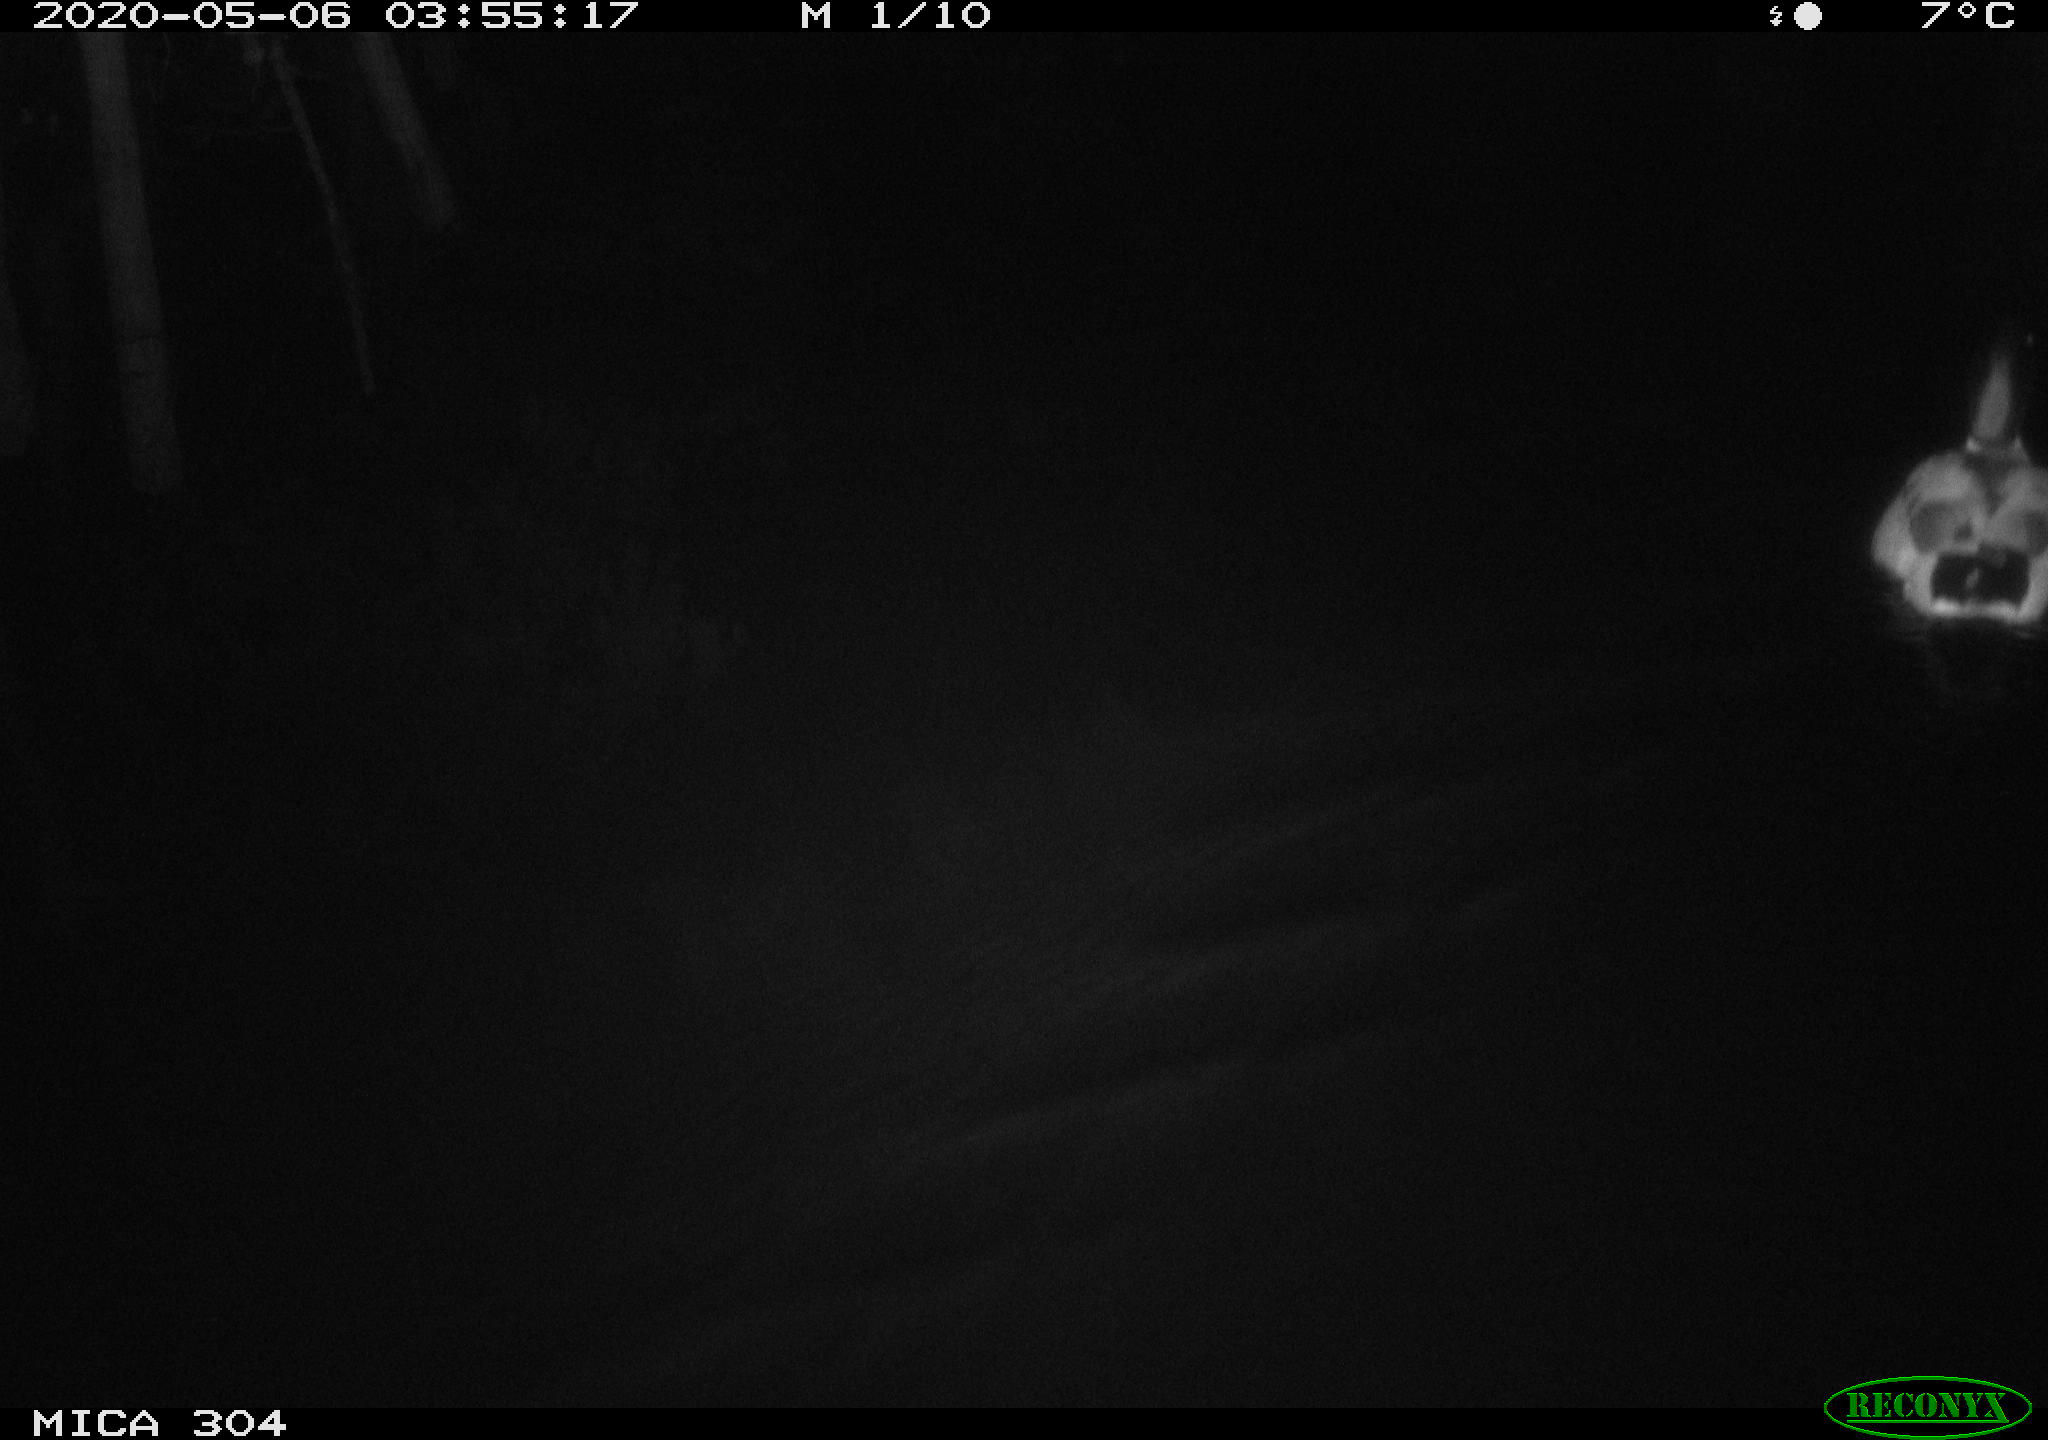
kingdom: Animalia
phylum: Chordata
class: Aves
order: Anseriformes
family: Anatidae
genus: Anas
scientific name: Anas platyrhynchos
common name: Mallard
